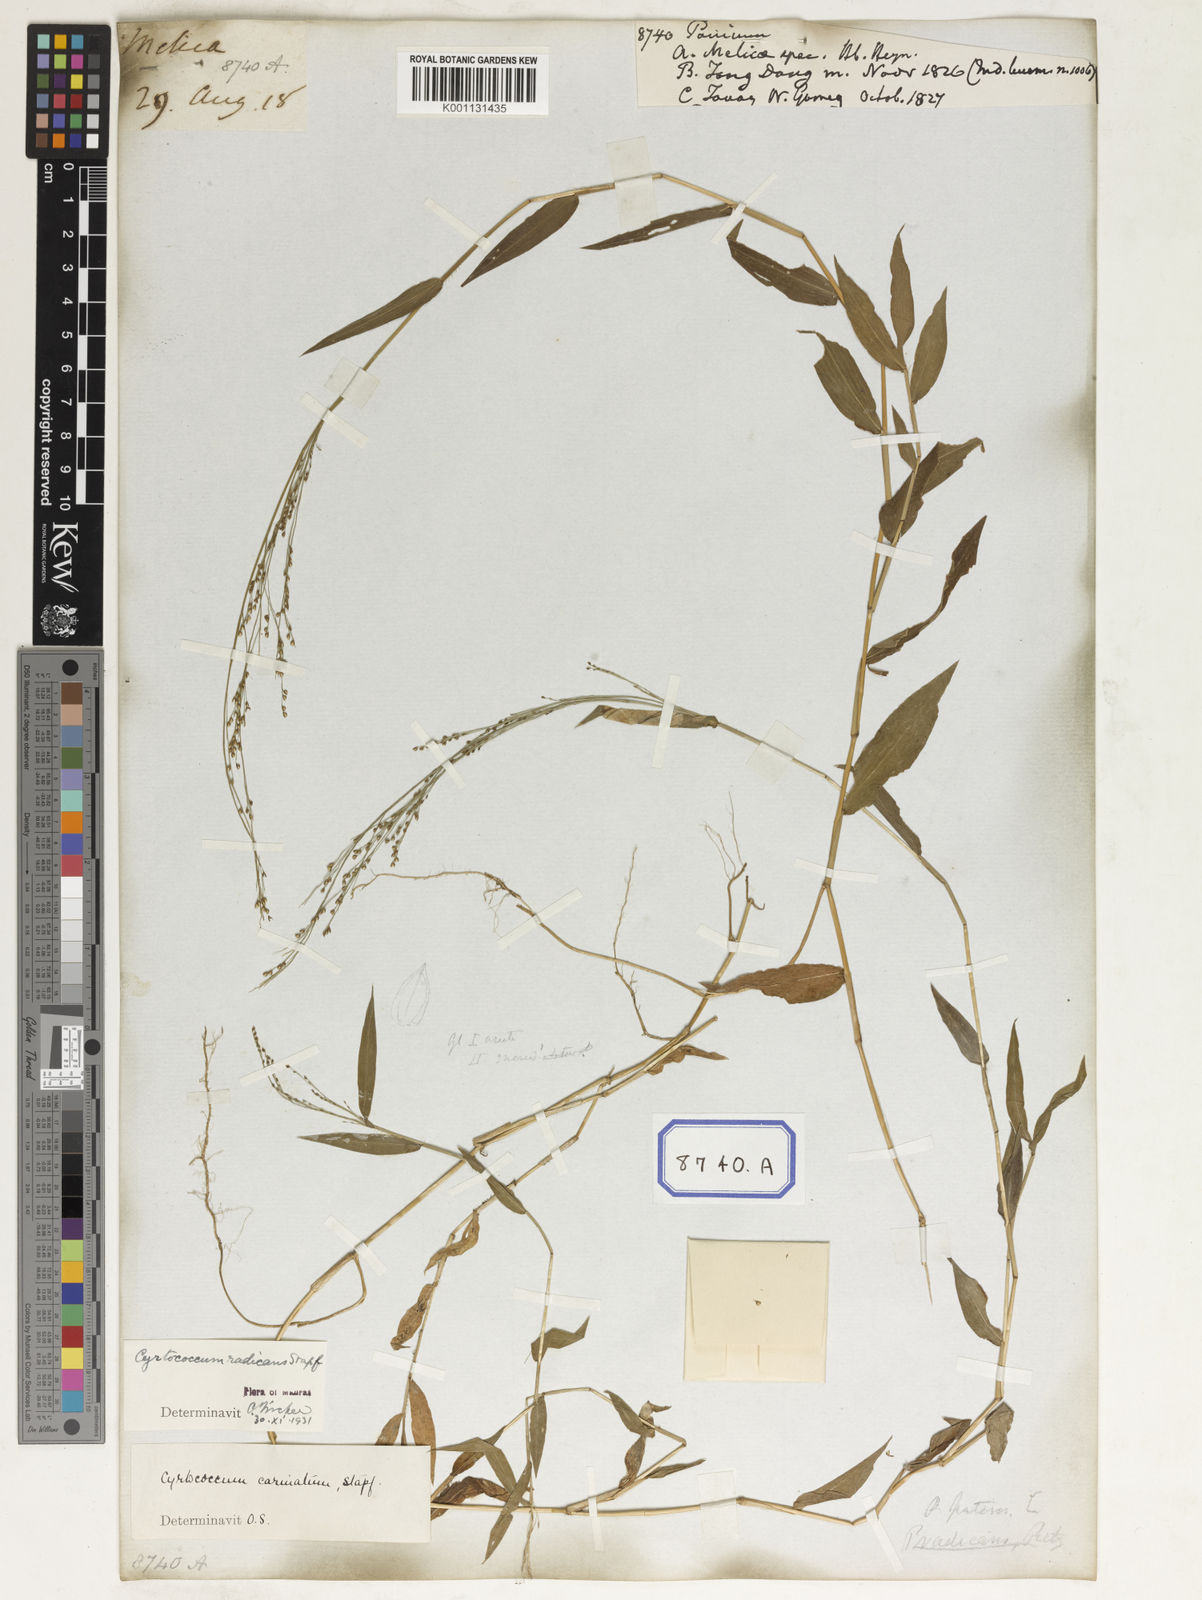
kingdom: Plantae
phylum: Tracheophyta
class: Liliopsida
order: Poales
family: Poaceae
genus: Panicum
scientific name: Panicum
